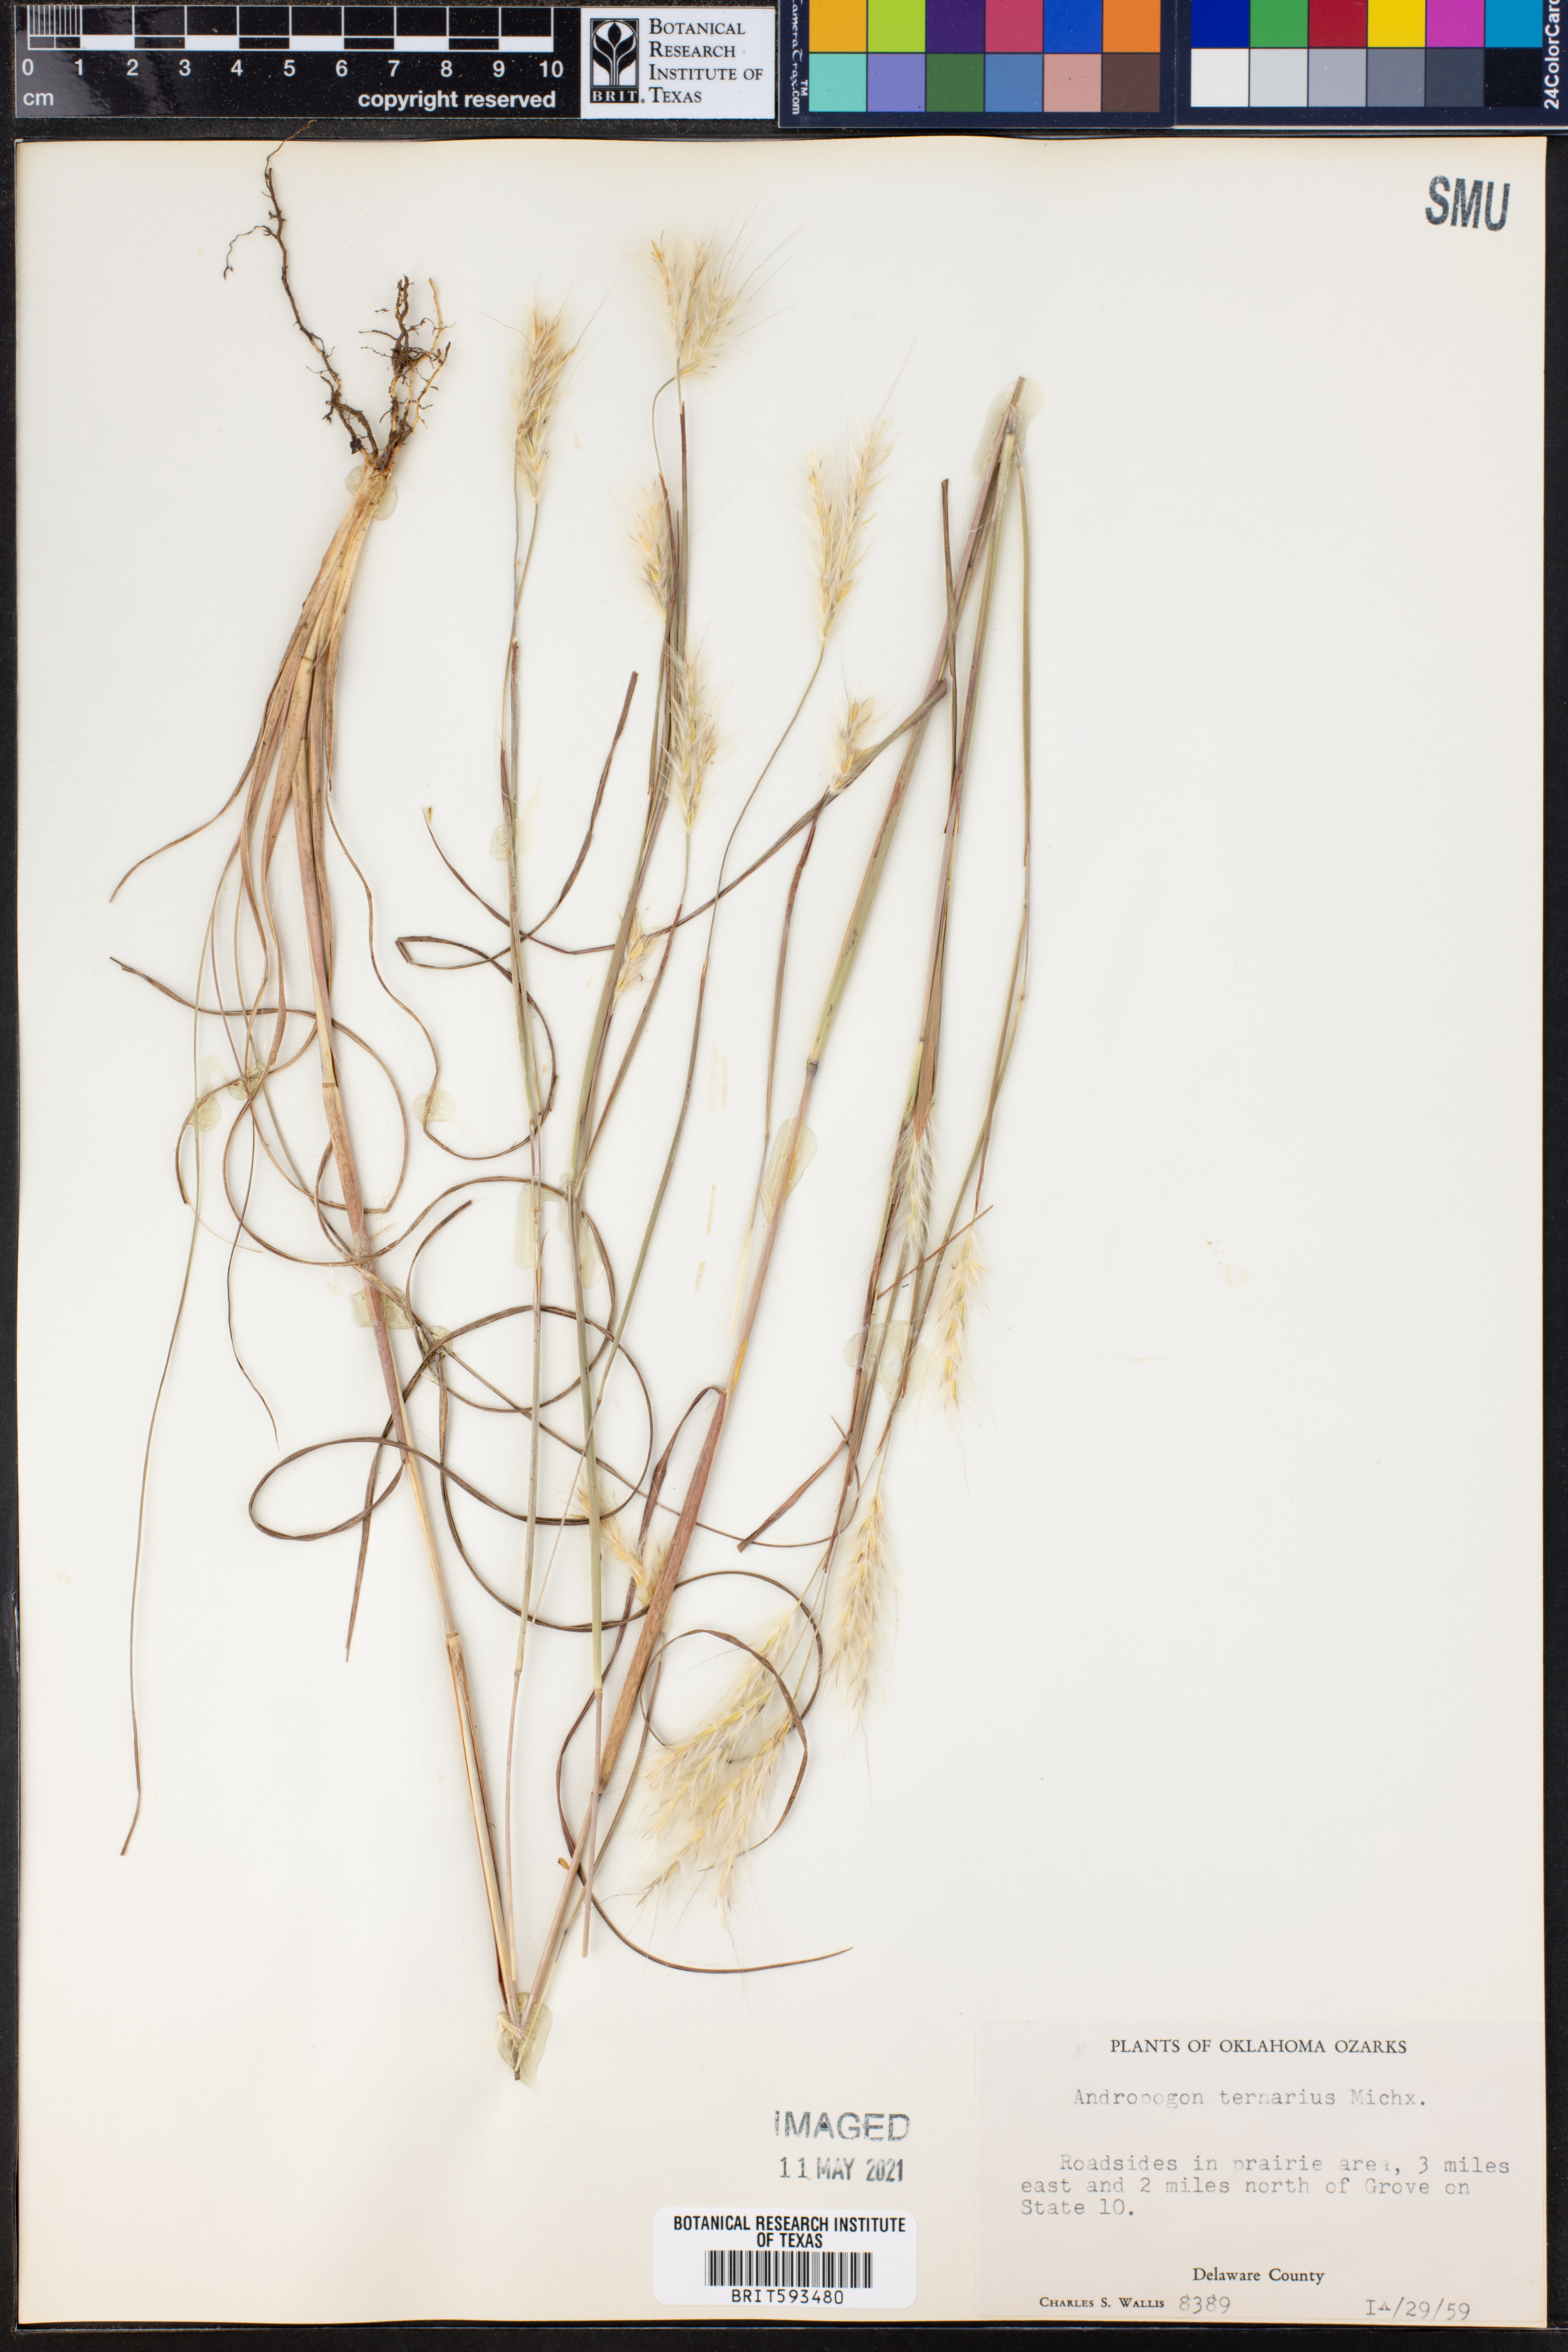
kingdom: Plantae
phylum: Tracheophyta
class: Liliopsida
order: Poales
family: Poaceae
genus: Andropogon
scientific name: Andropogon ternarius
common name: Split bluestem
